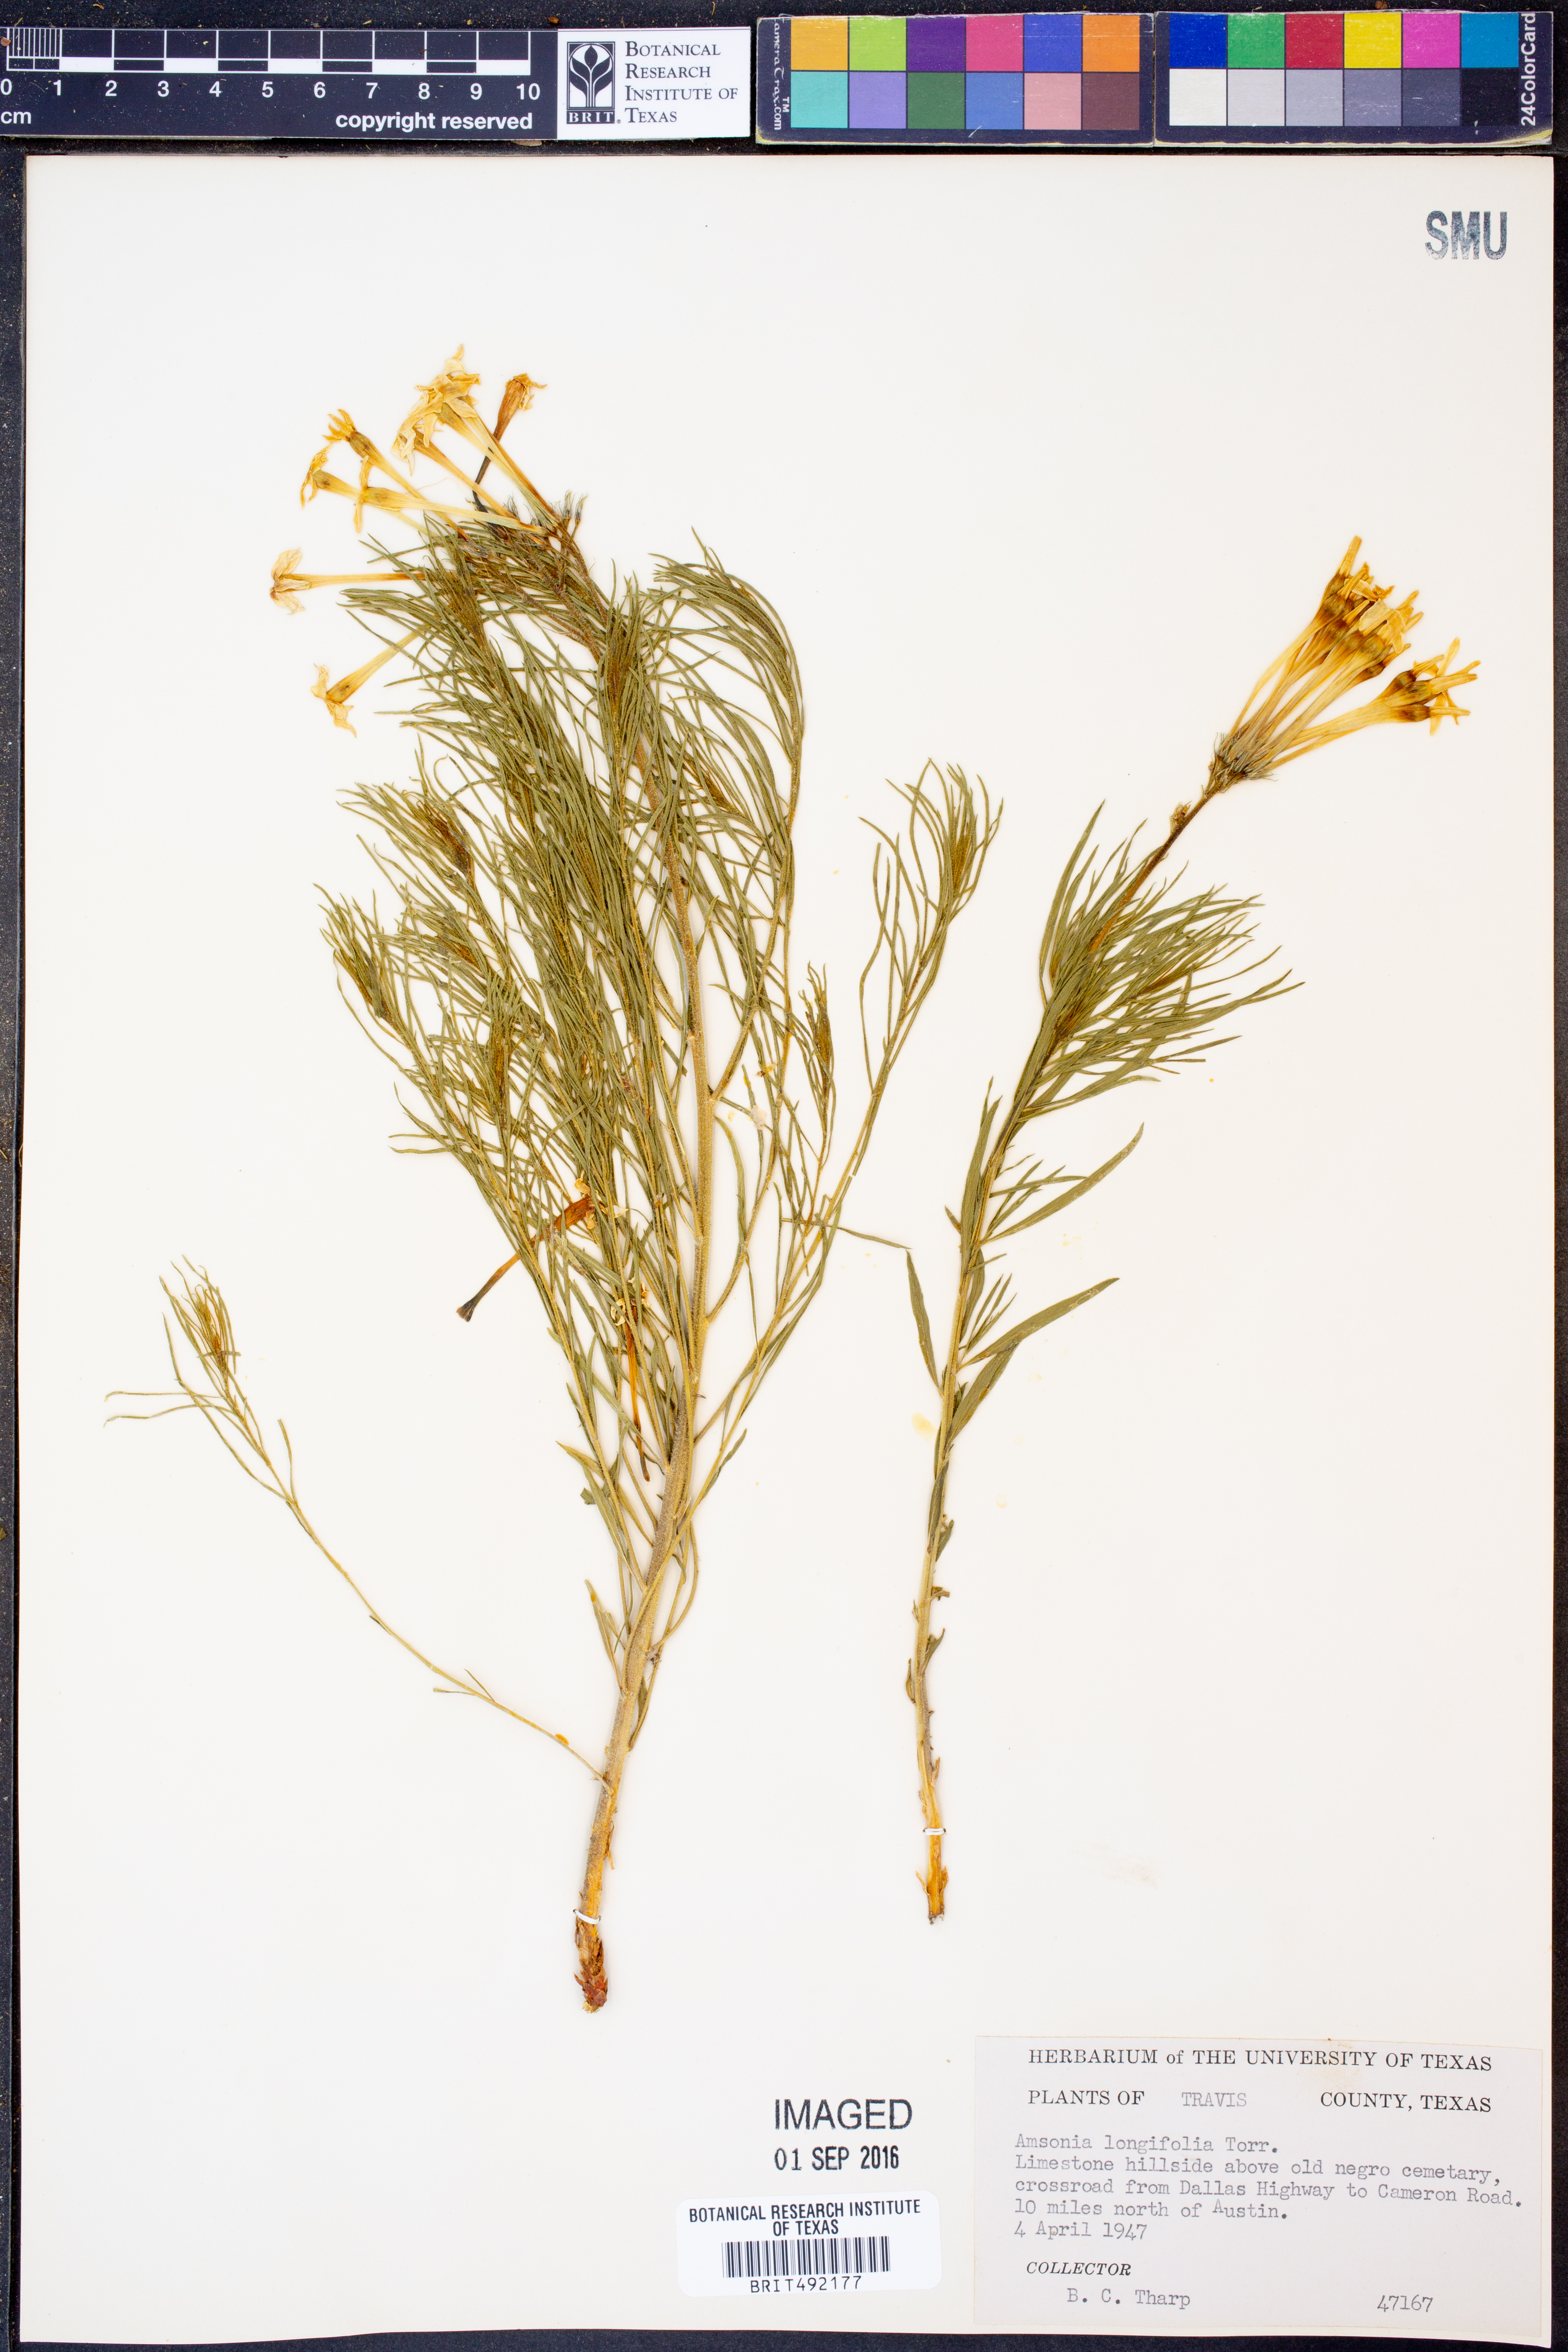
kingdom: Plantae
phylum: Tracheophyta
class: Magnoliopsida
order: Gentianales
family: Apocynaceae
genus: Amsonia
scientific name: Amsonia longiflora
